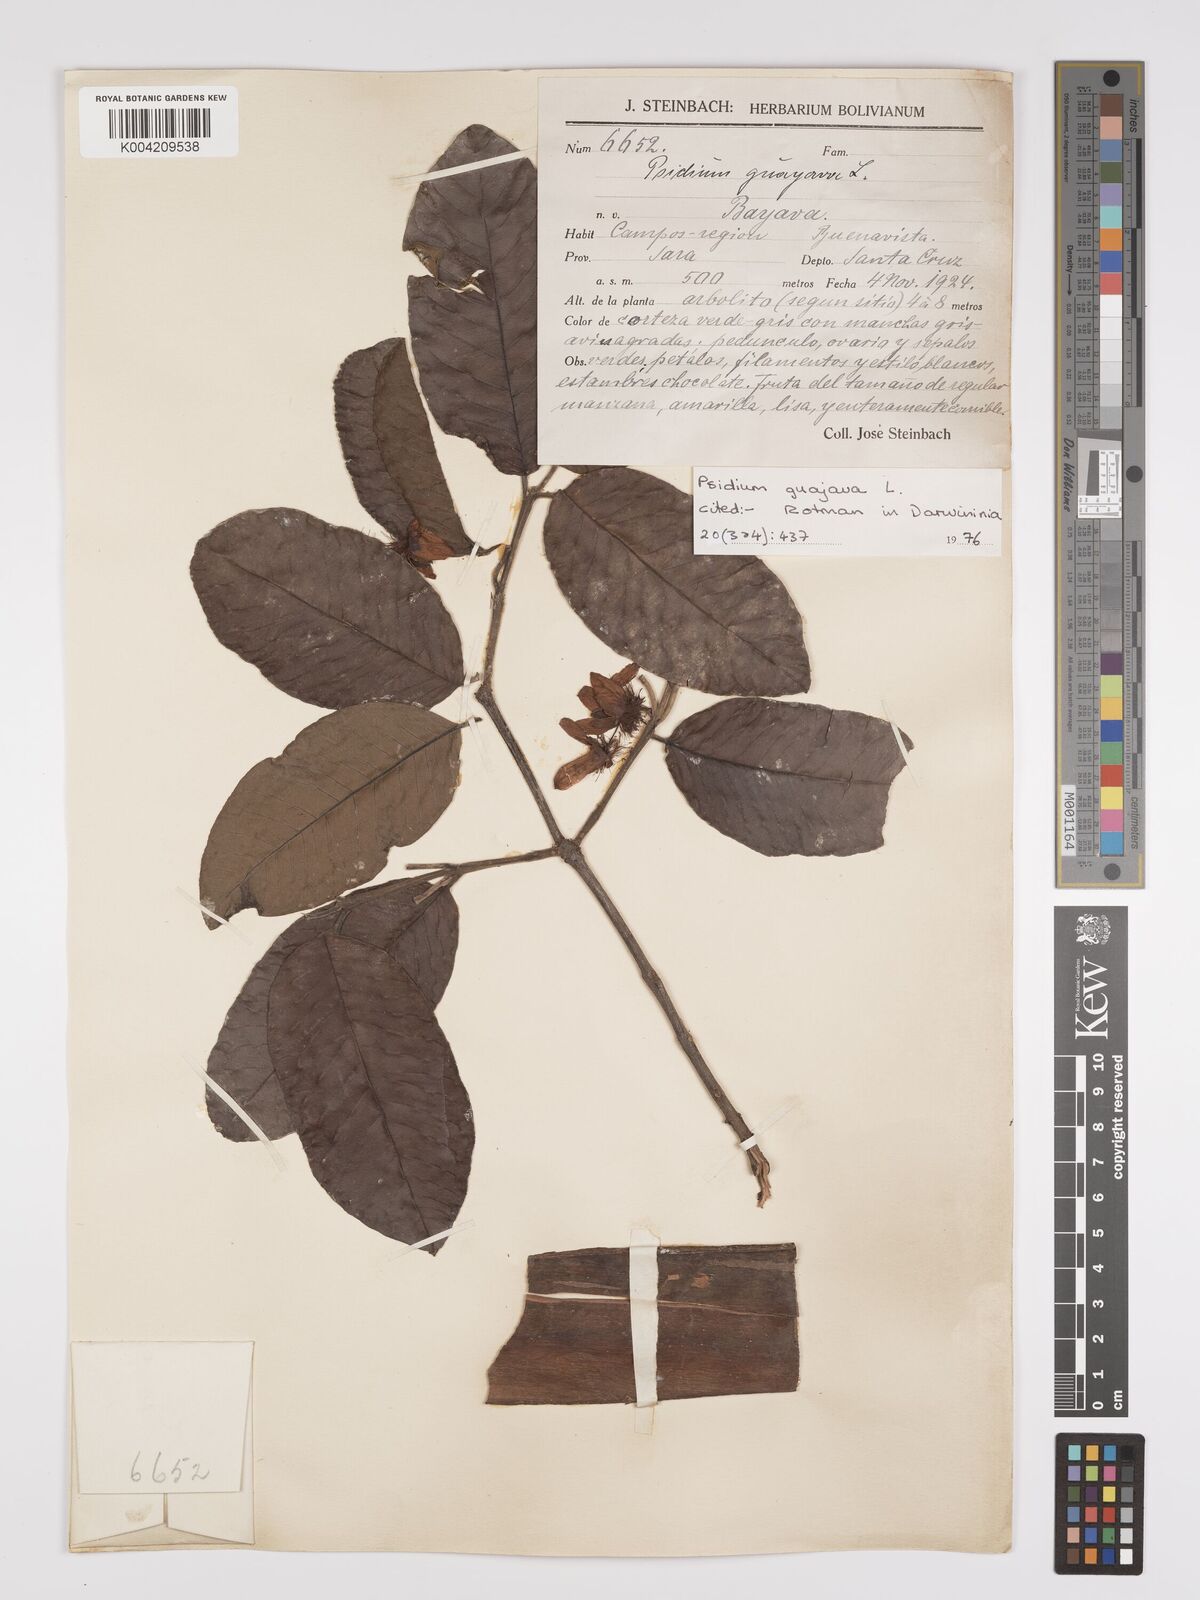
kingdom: Plantae
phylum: Tracheophyta
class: Magnoliopsida
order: Myrtales
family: Myrtaceae
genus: Psidium
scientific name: Psidium guajava
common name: Guava
